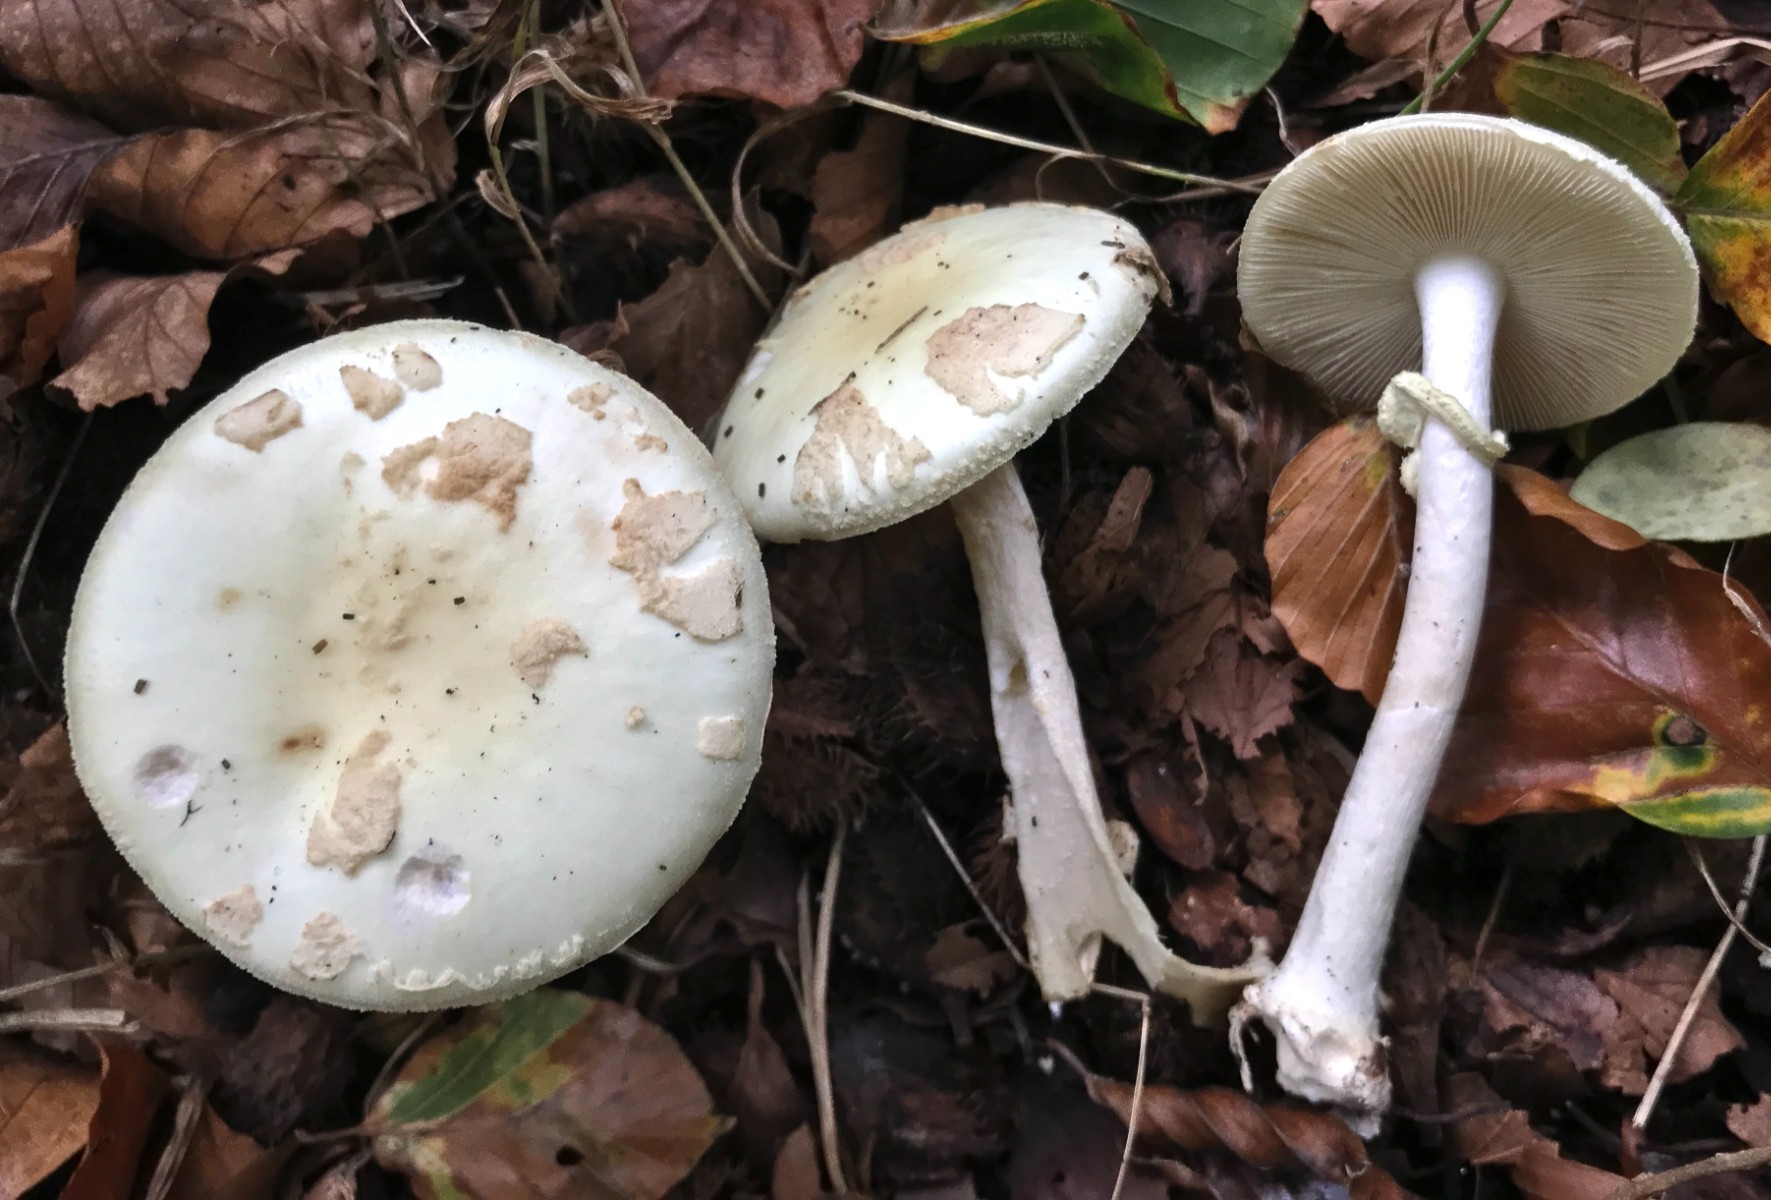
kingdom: Fungi
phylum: Basidiomycota
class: Agaricomycetes
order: Agaricales
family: Amanitaceae
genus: Amanita
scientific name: Amanita citrina
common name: False death-cap
